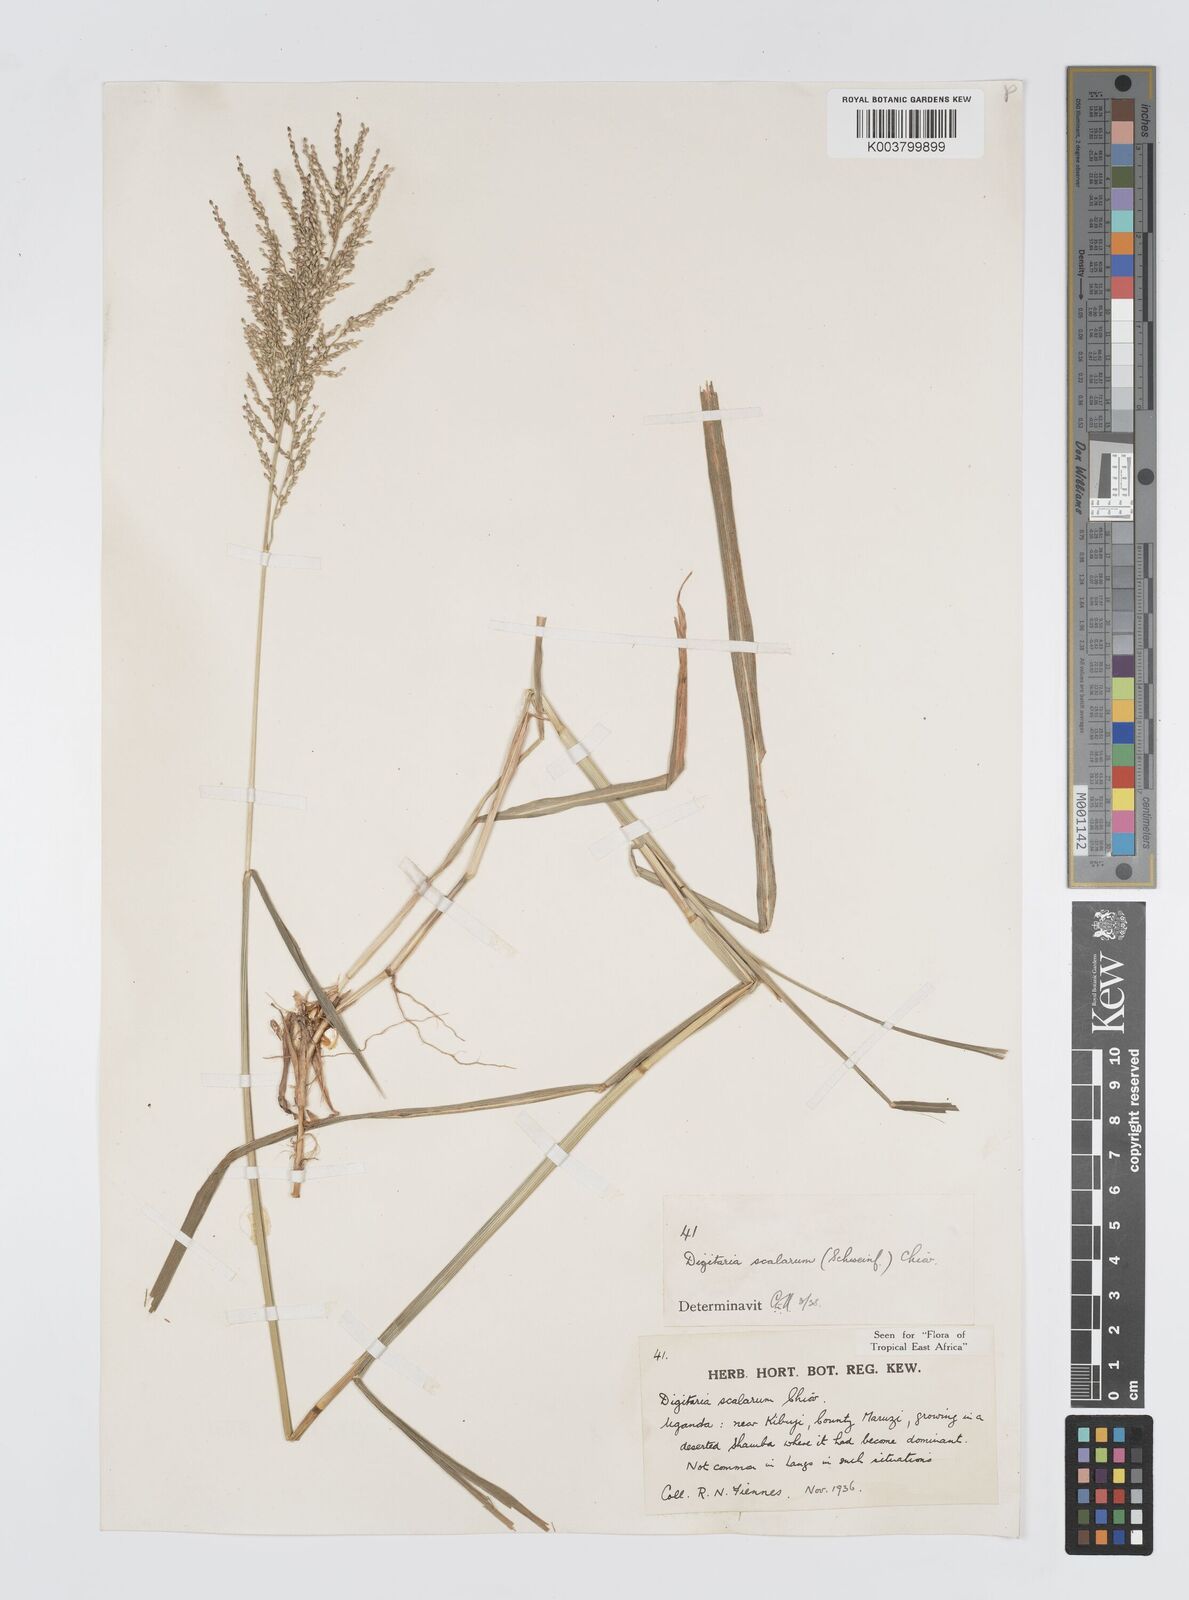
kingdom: Plantae
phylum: Tracheophyta
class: Liliopsida
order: Poales
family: Poaceae
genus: Digitaria
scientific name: Digitaria abyssinica
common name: African couchgrass
